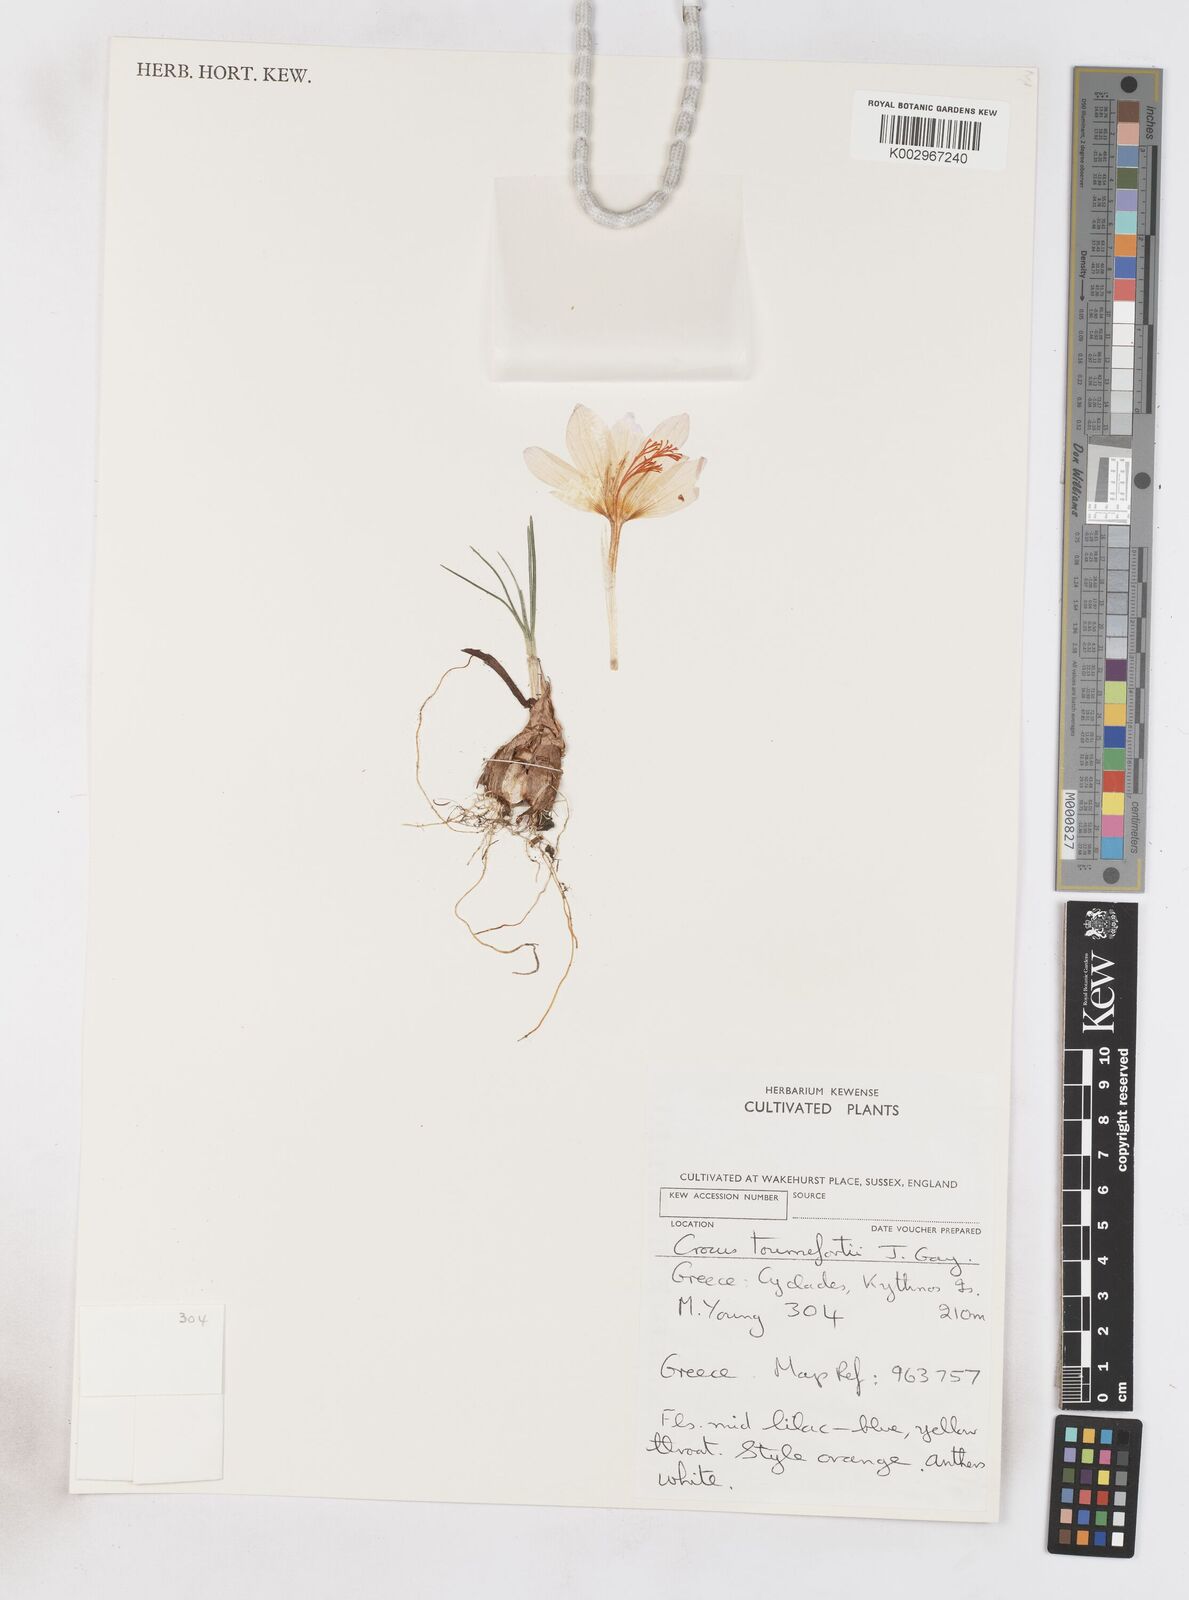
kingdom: Plantae
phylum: Tracheophyta
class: Liliopsida
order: Asparagales
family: Iridaceae
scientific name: Iridaceae
